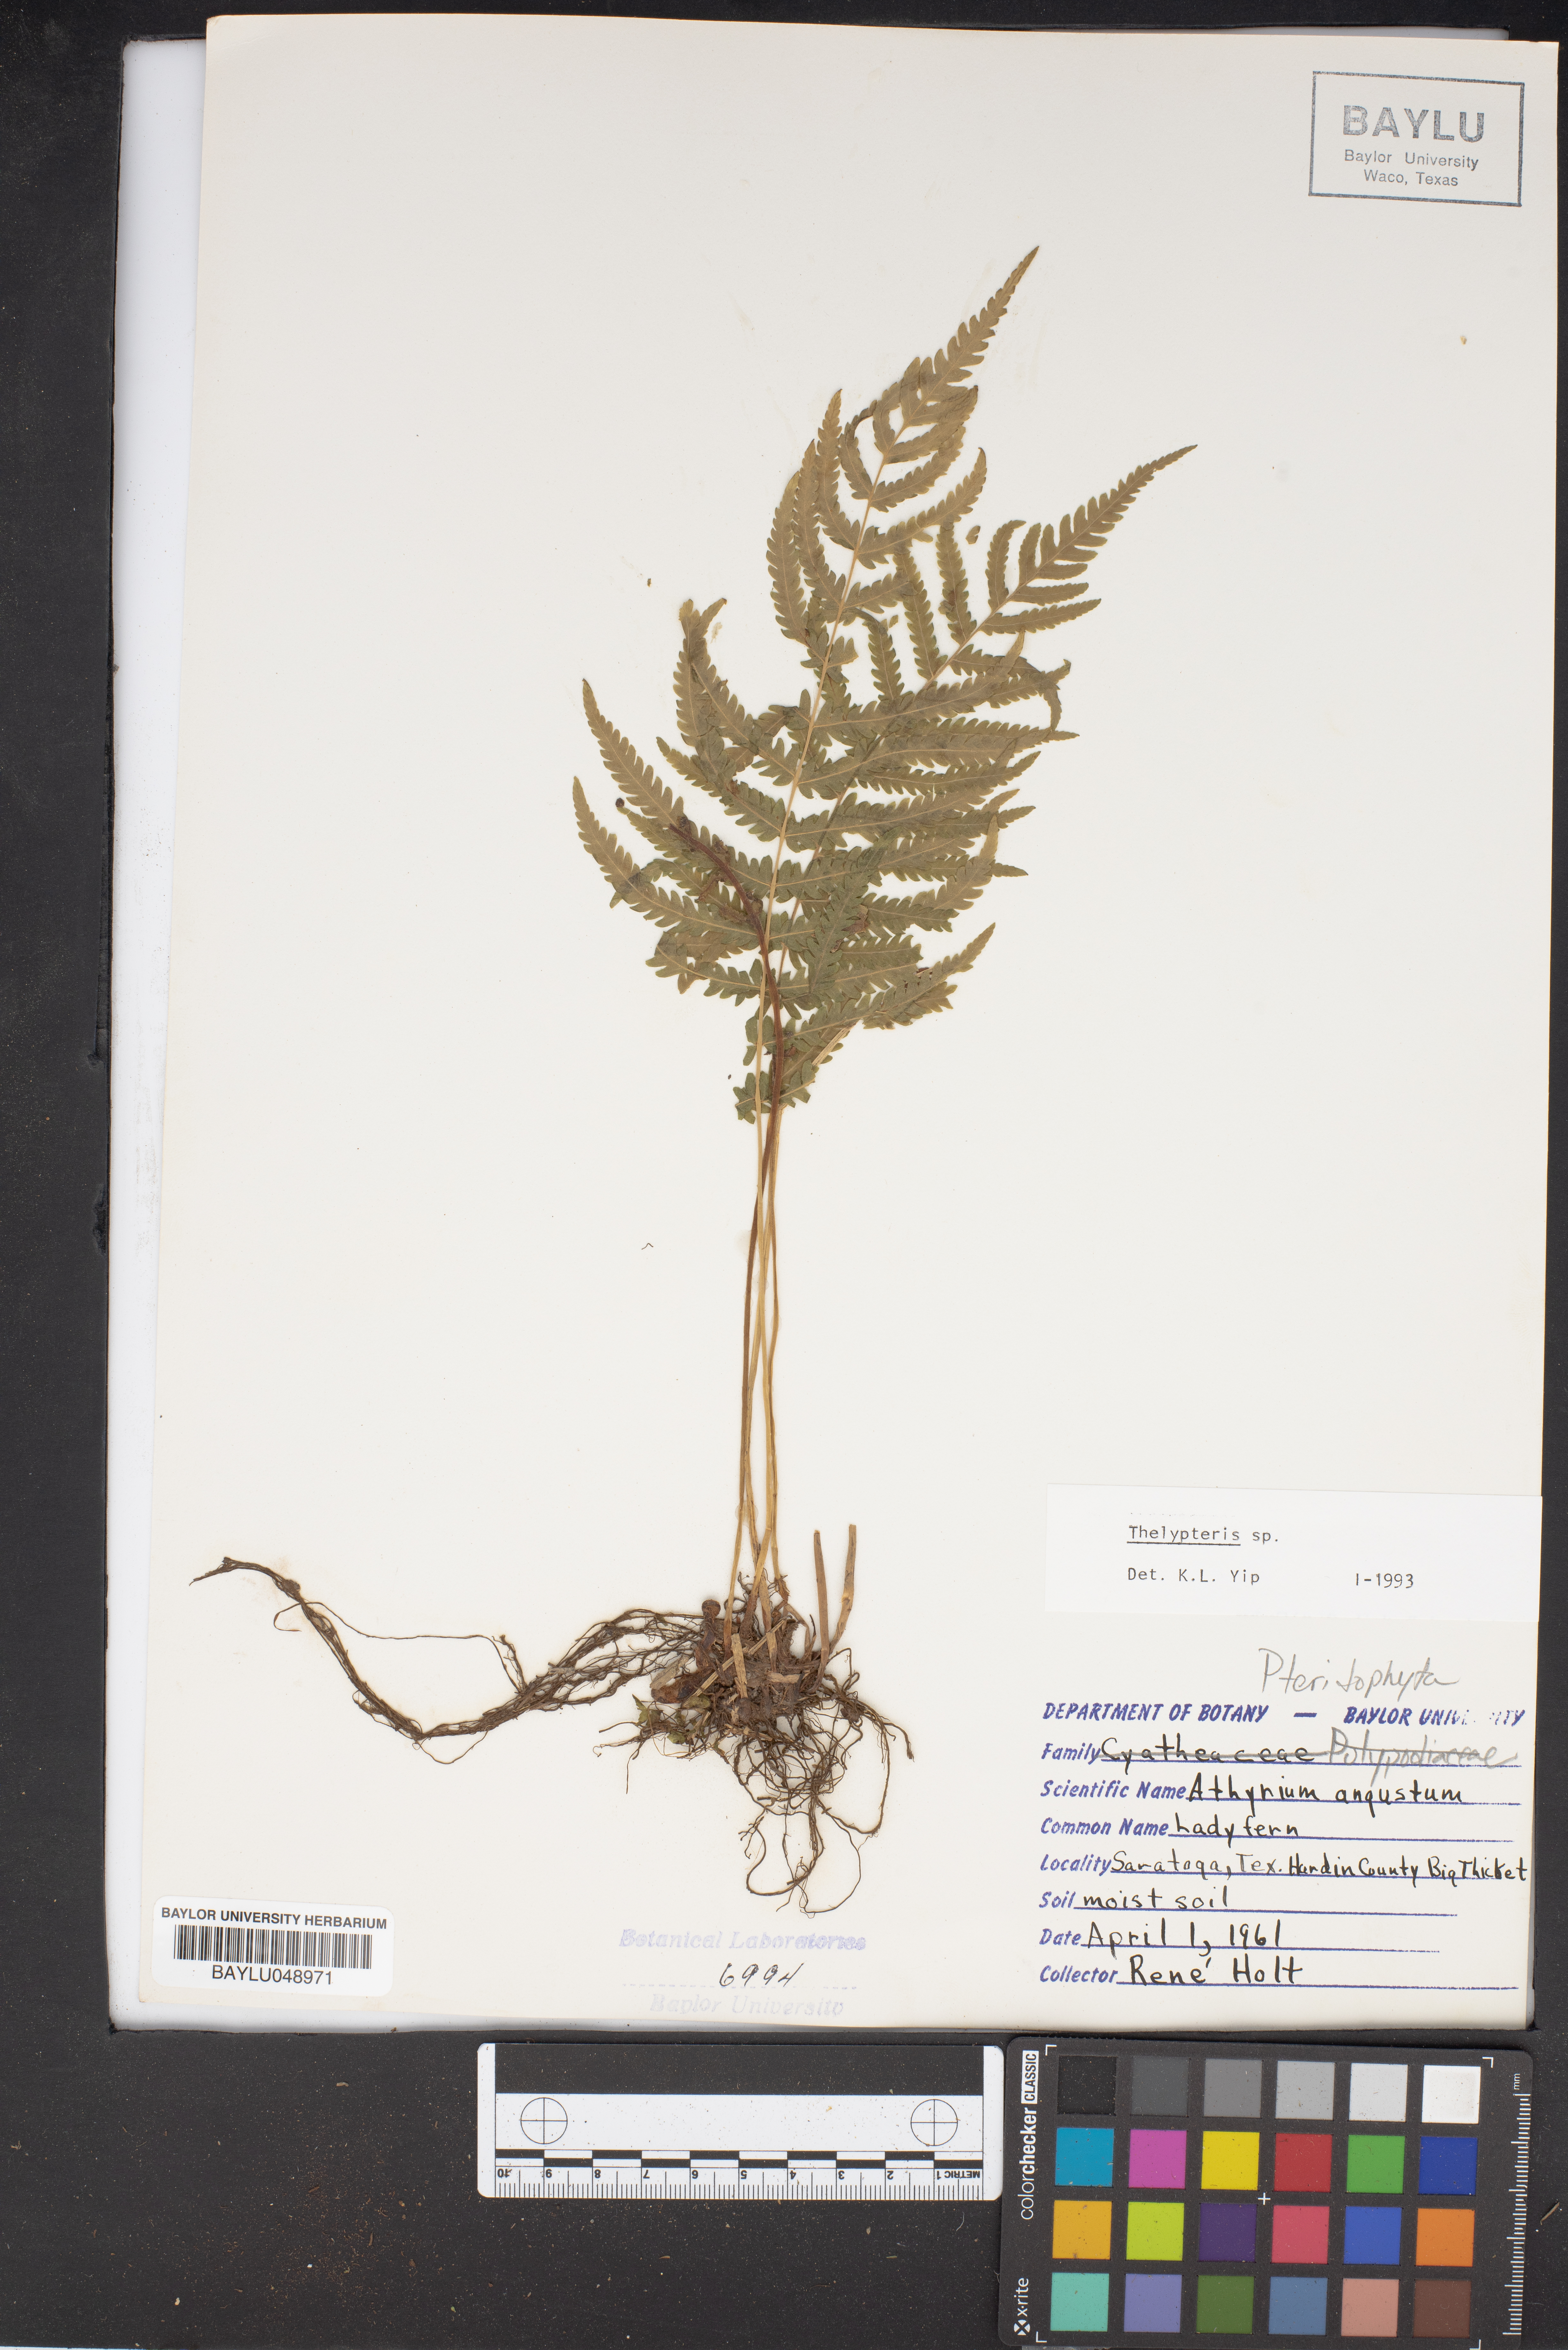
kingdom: Plantae
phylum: Tracheophyta
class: Polypodiopsida
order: Polypodiales
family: Athyriaceae
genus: Athyrium
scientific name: Athyrium angustum
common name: Northern lady fern
